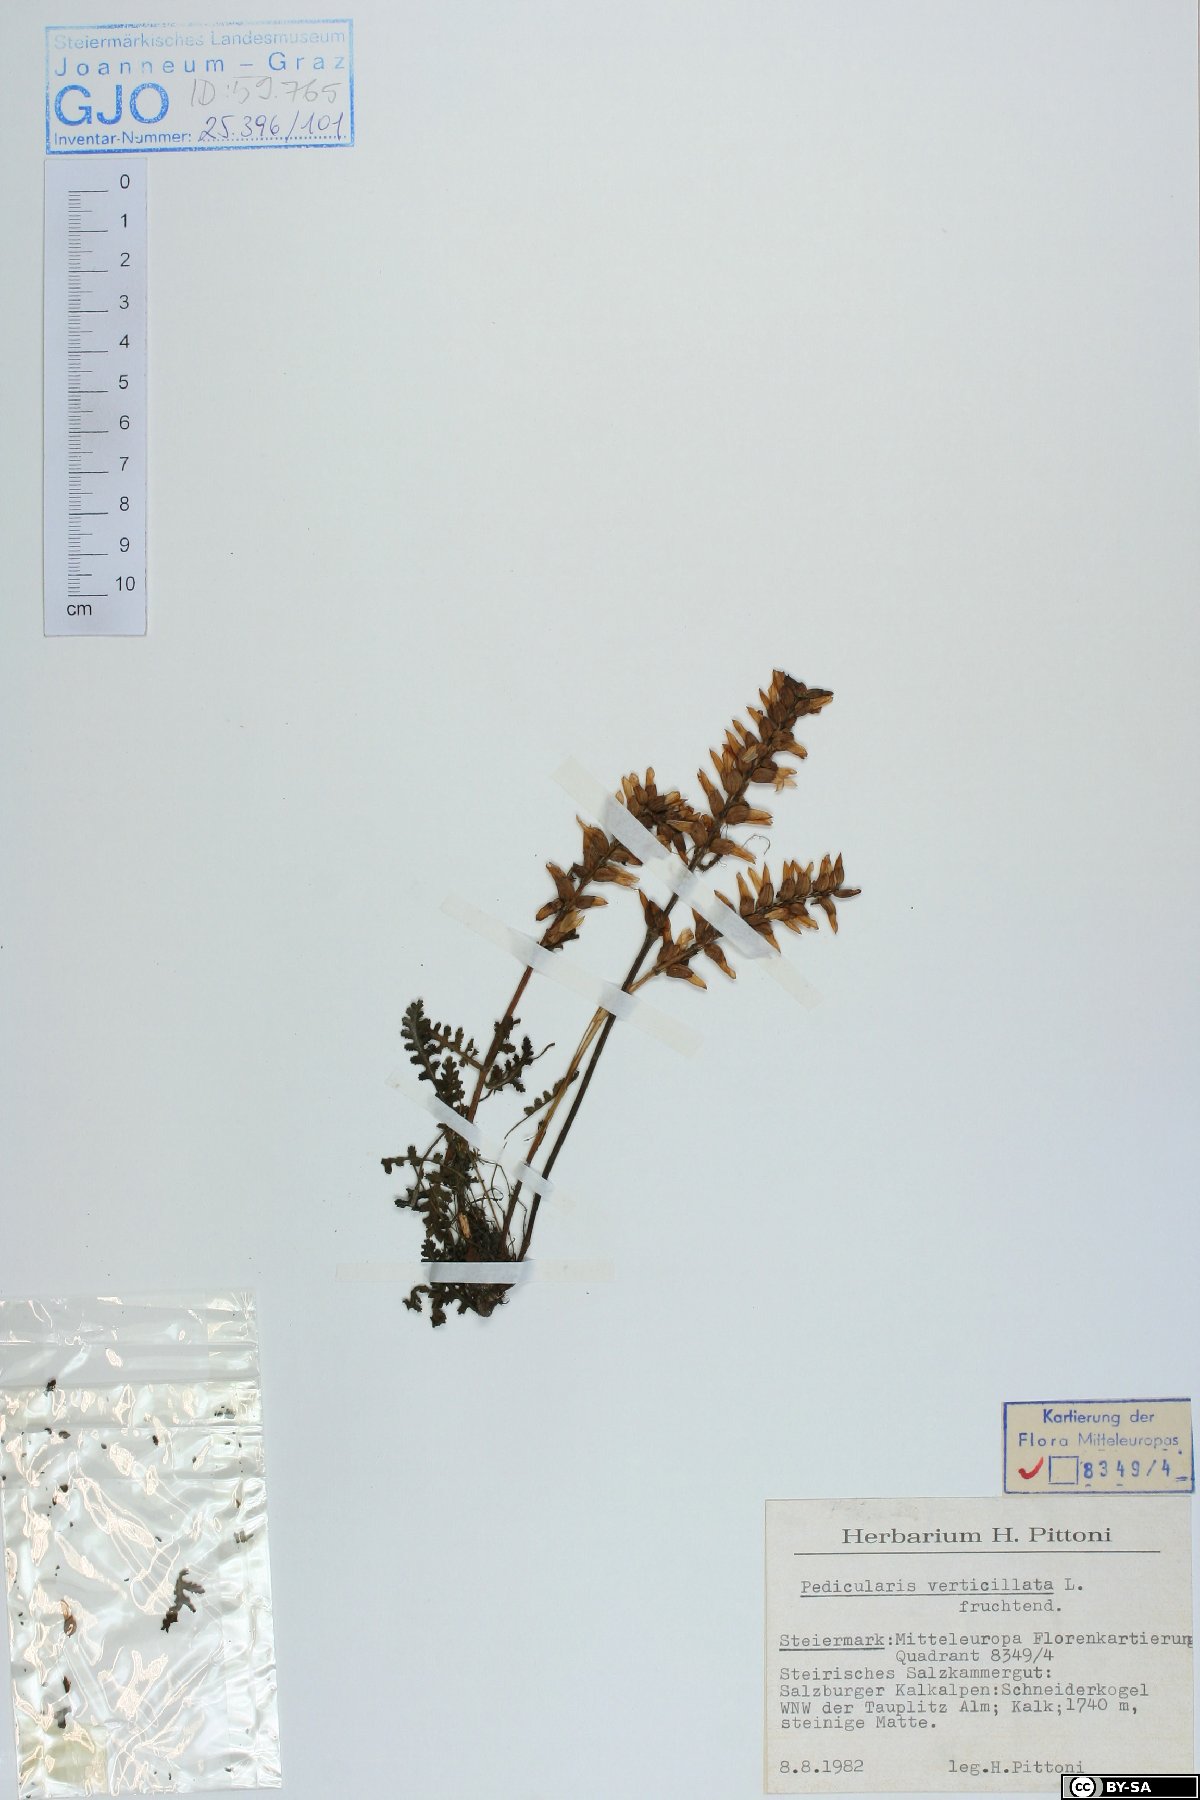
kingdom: Plantae
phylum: Tracheophyta
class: Magnoliopsida
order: Lamiales
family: Orobanchaceae
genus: Pedicularis
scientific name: Pedicularis verticillata
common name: Whorled lousewort
